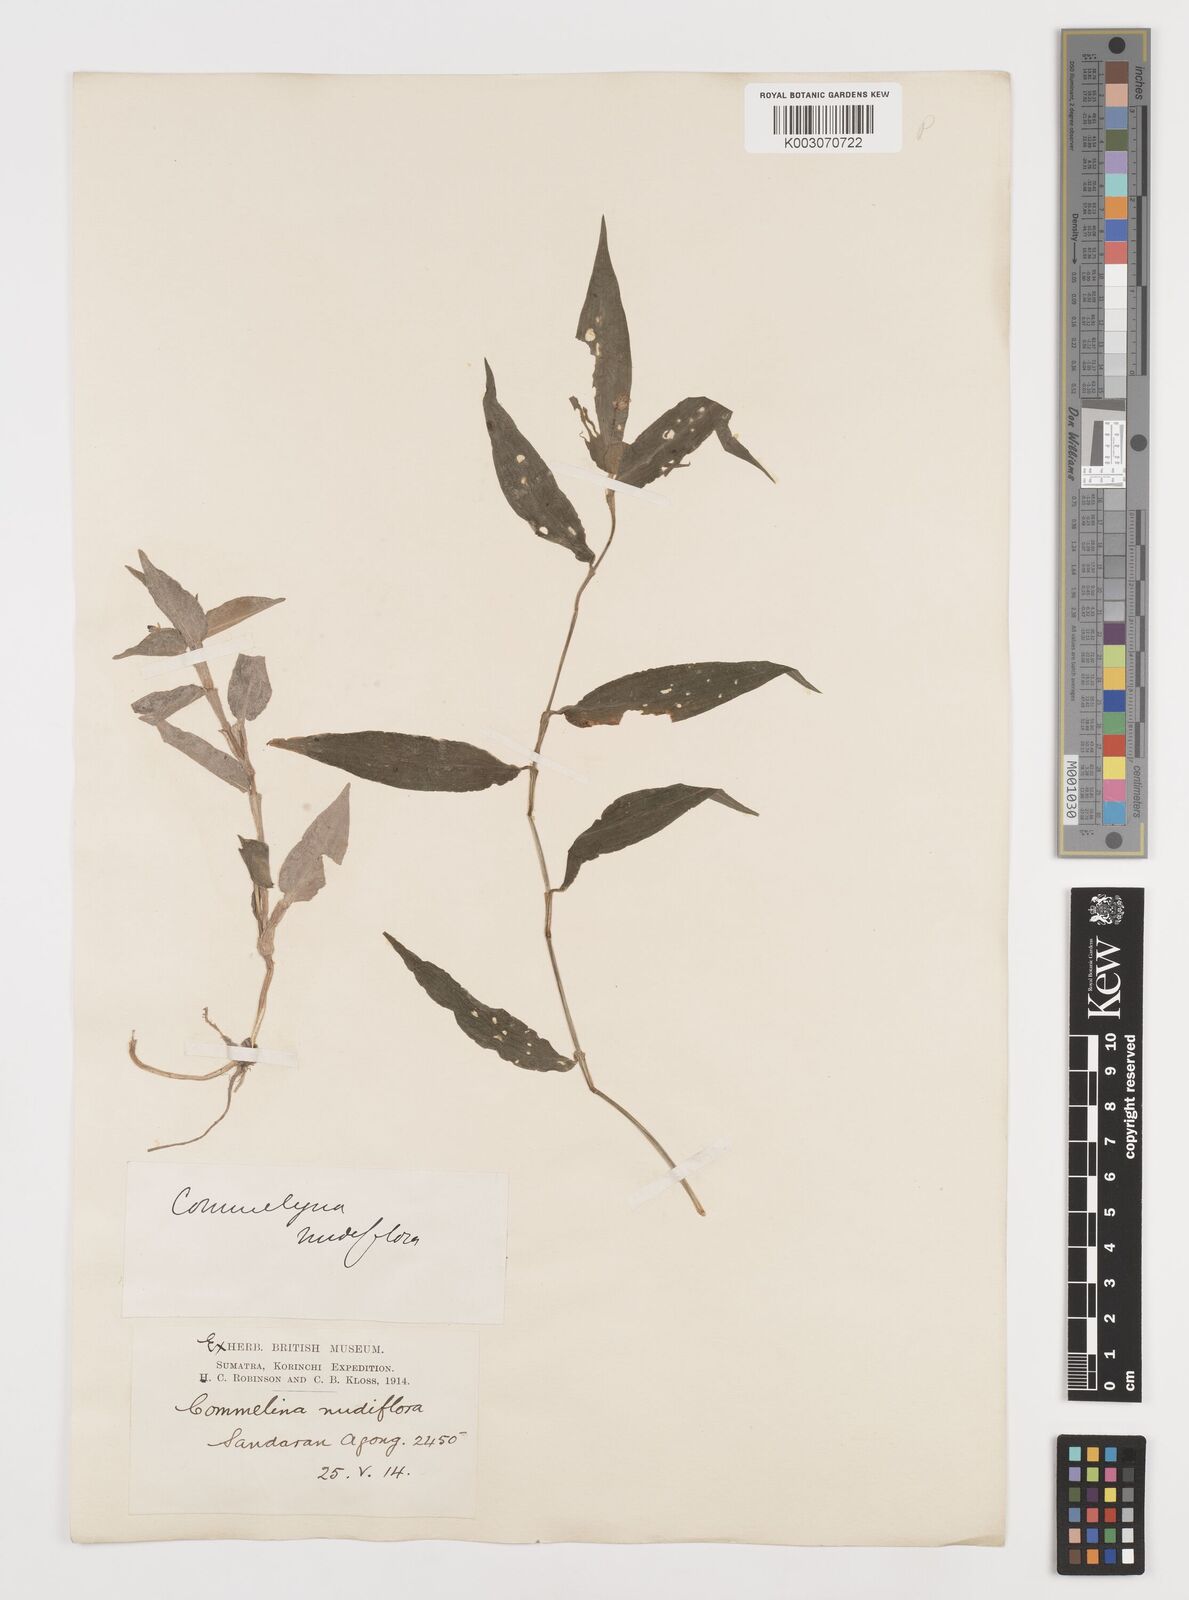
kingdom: Plantae
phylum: Tracheophyta
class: Liliopsida
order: Commelinales
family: Commelinaceae
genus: Commelina
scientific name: Commelina clavata
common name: Willow leaved dayflower
